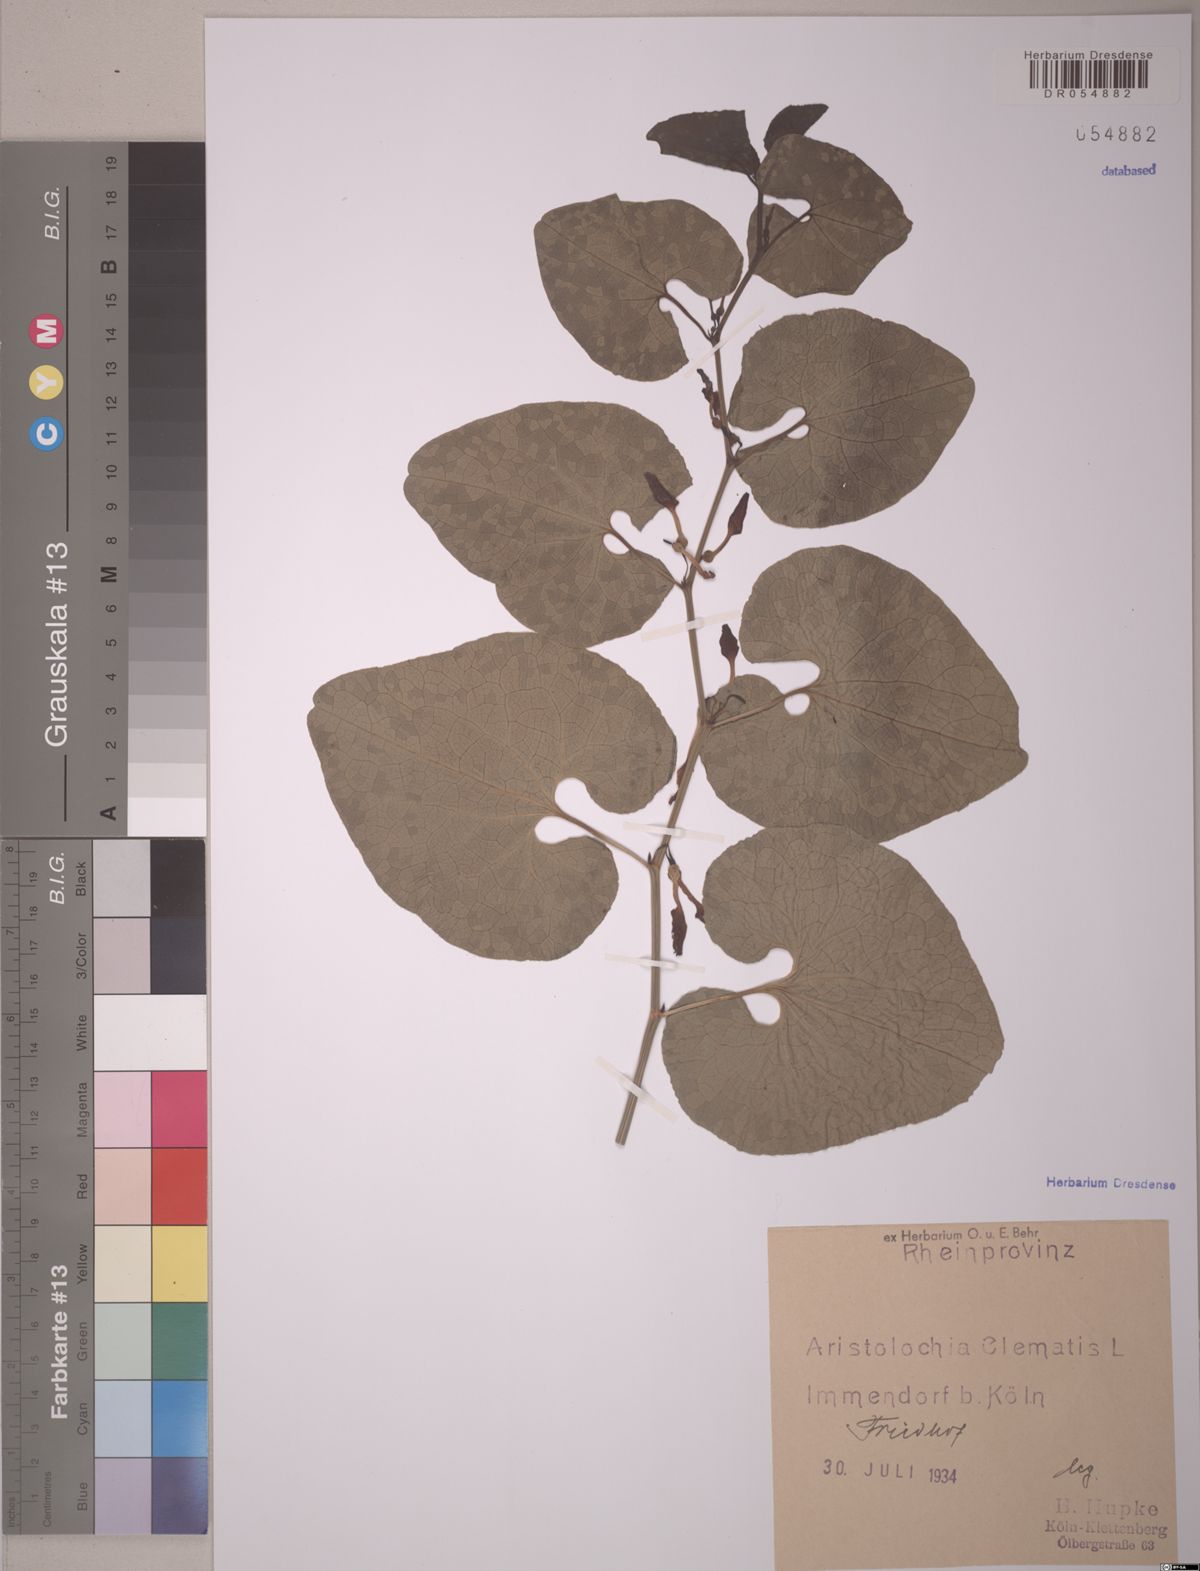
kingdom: Plantae
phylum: Tracheophyta
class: Magnoliopsida
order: Piperales
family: Aristolochiaceae
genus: Aristolochia
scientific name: Aristolochia clematitis
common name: Birthwort
